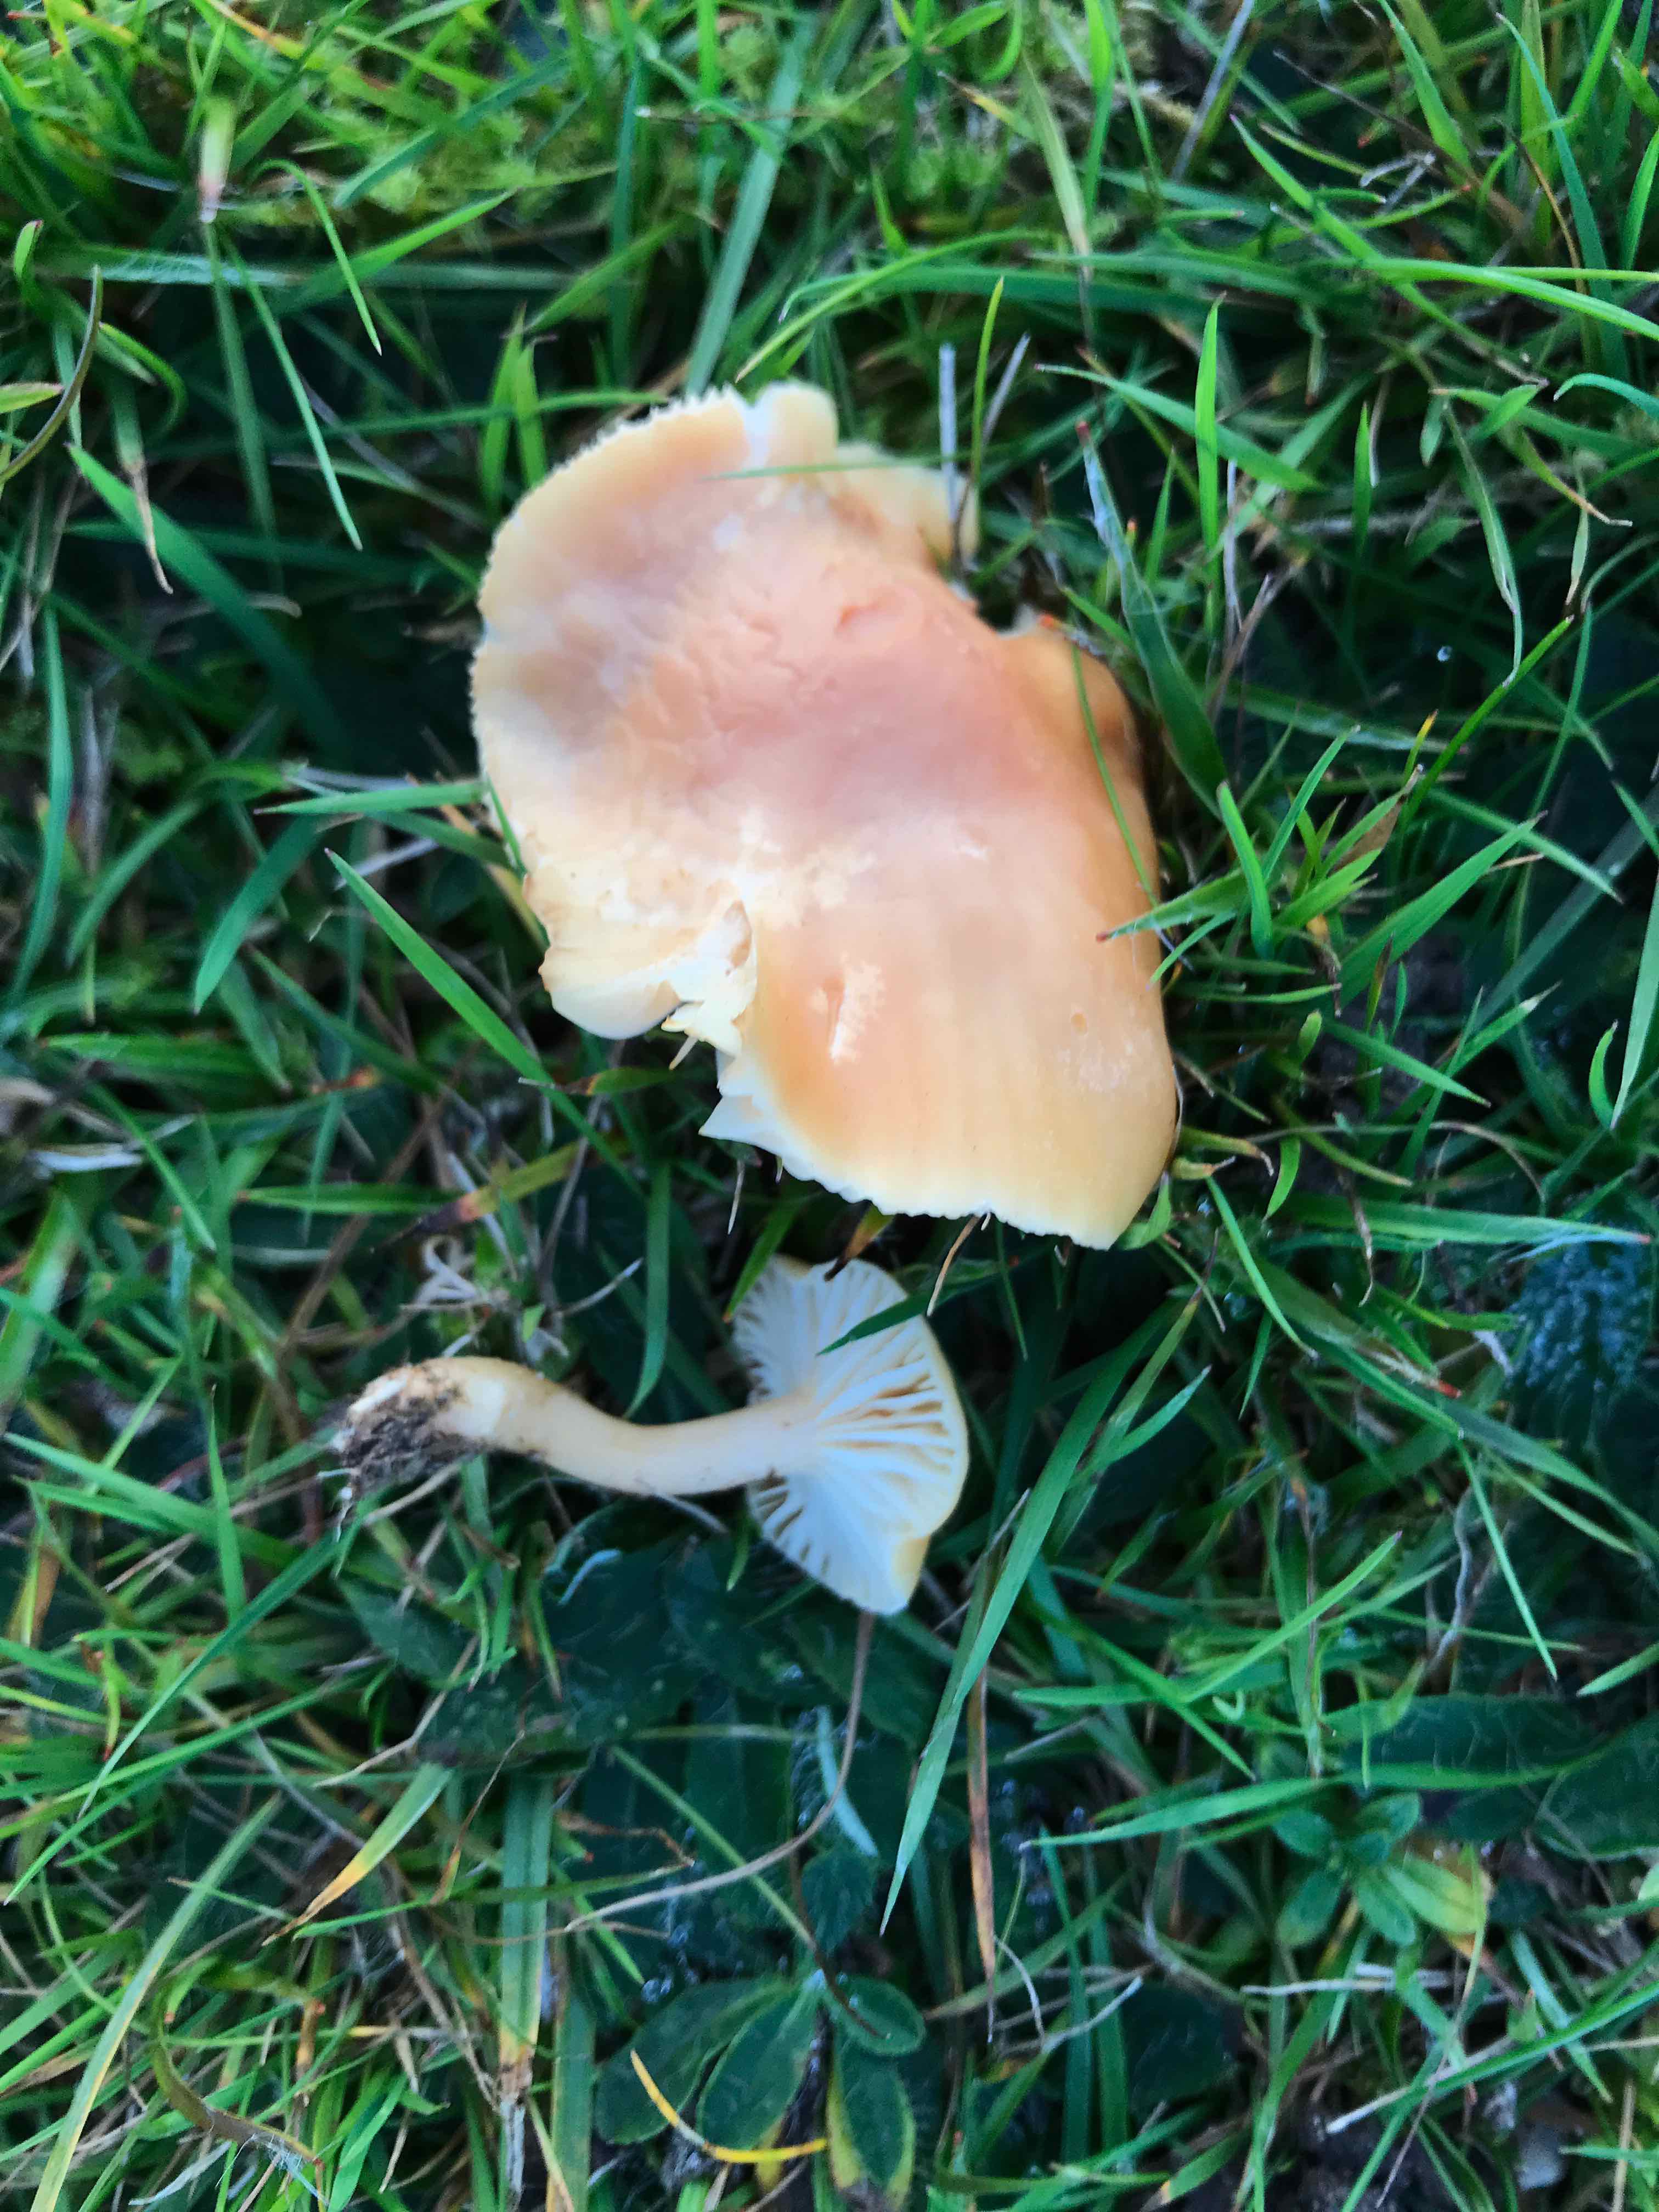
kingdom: Fungi
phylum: Basidiomycota
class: Agaricomycetes
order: Agaricales
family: Hygrophoraceae
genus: Cuphophyllus
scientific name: Cuphophyllus pratensis
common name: eng-vokshat
